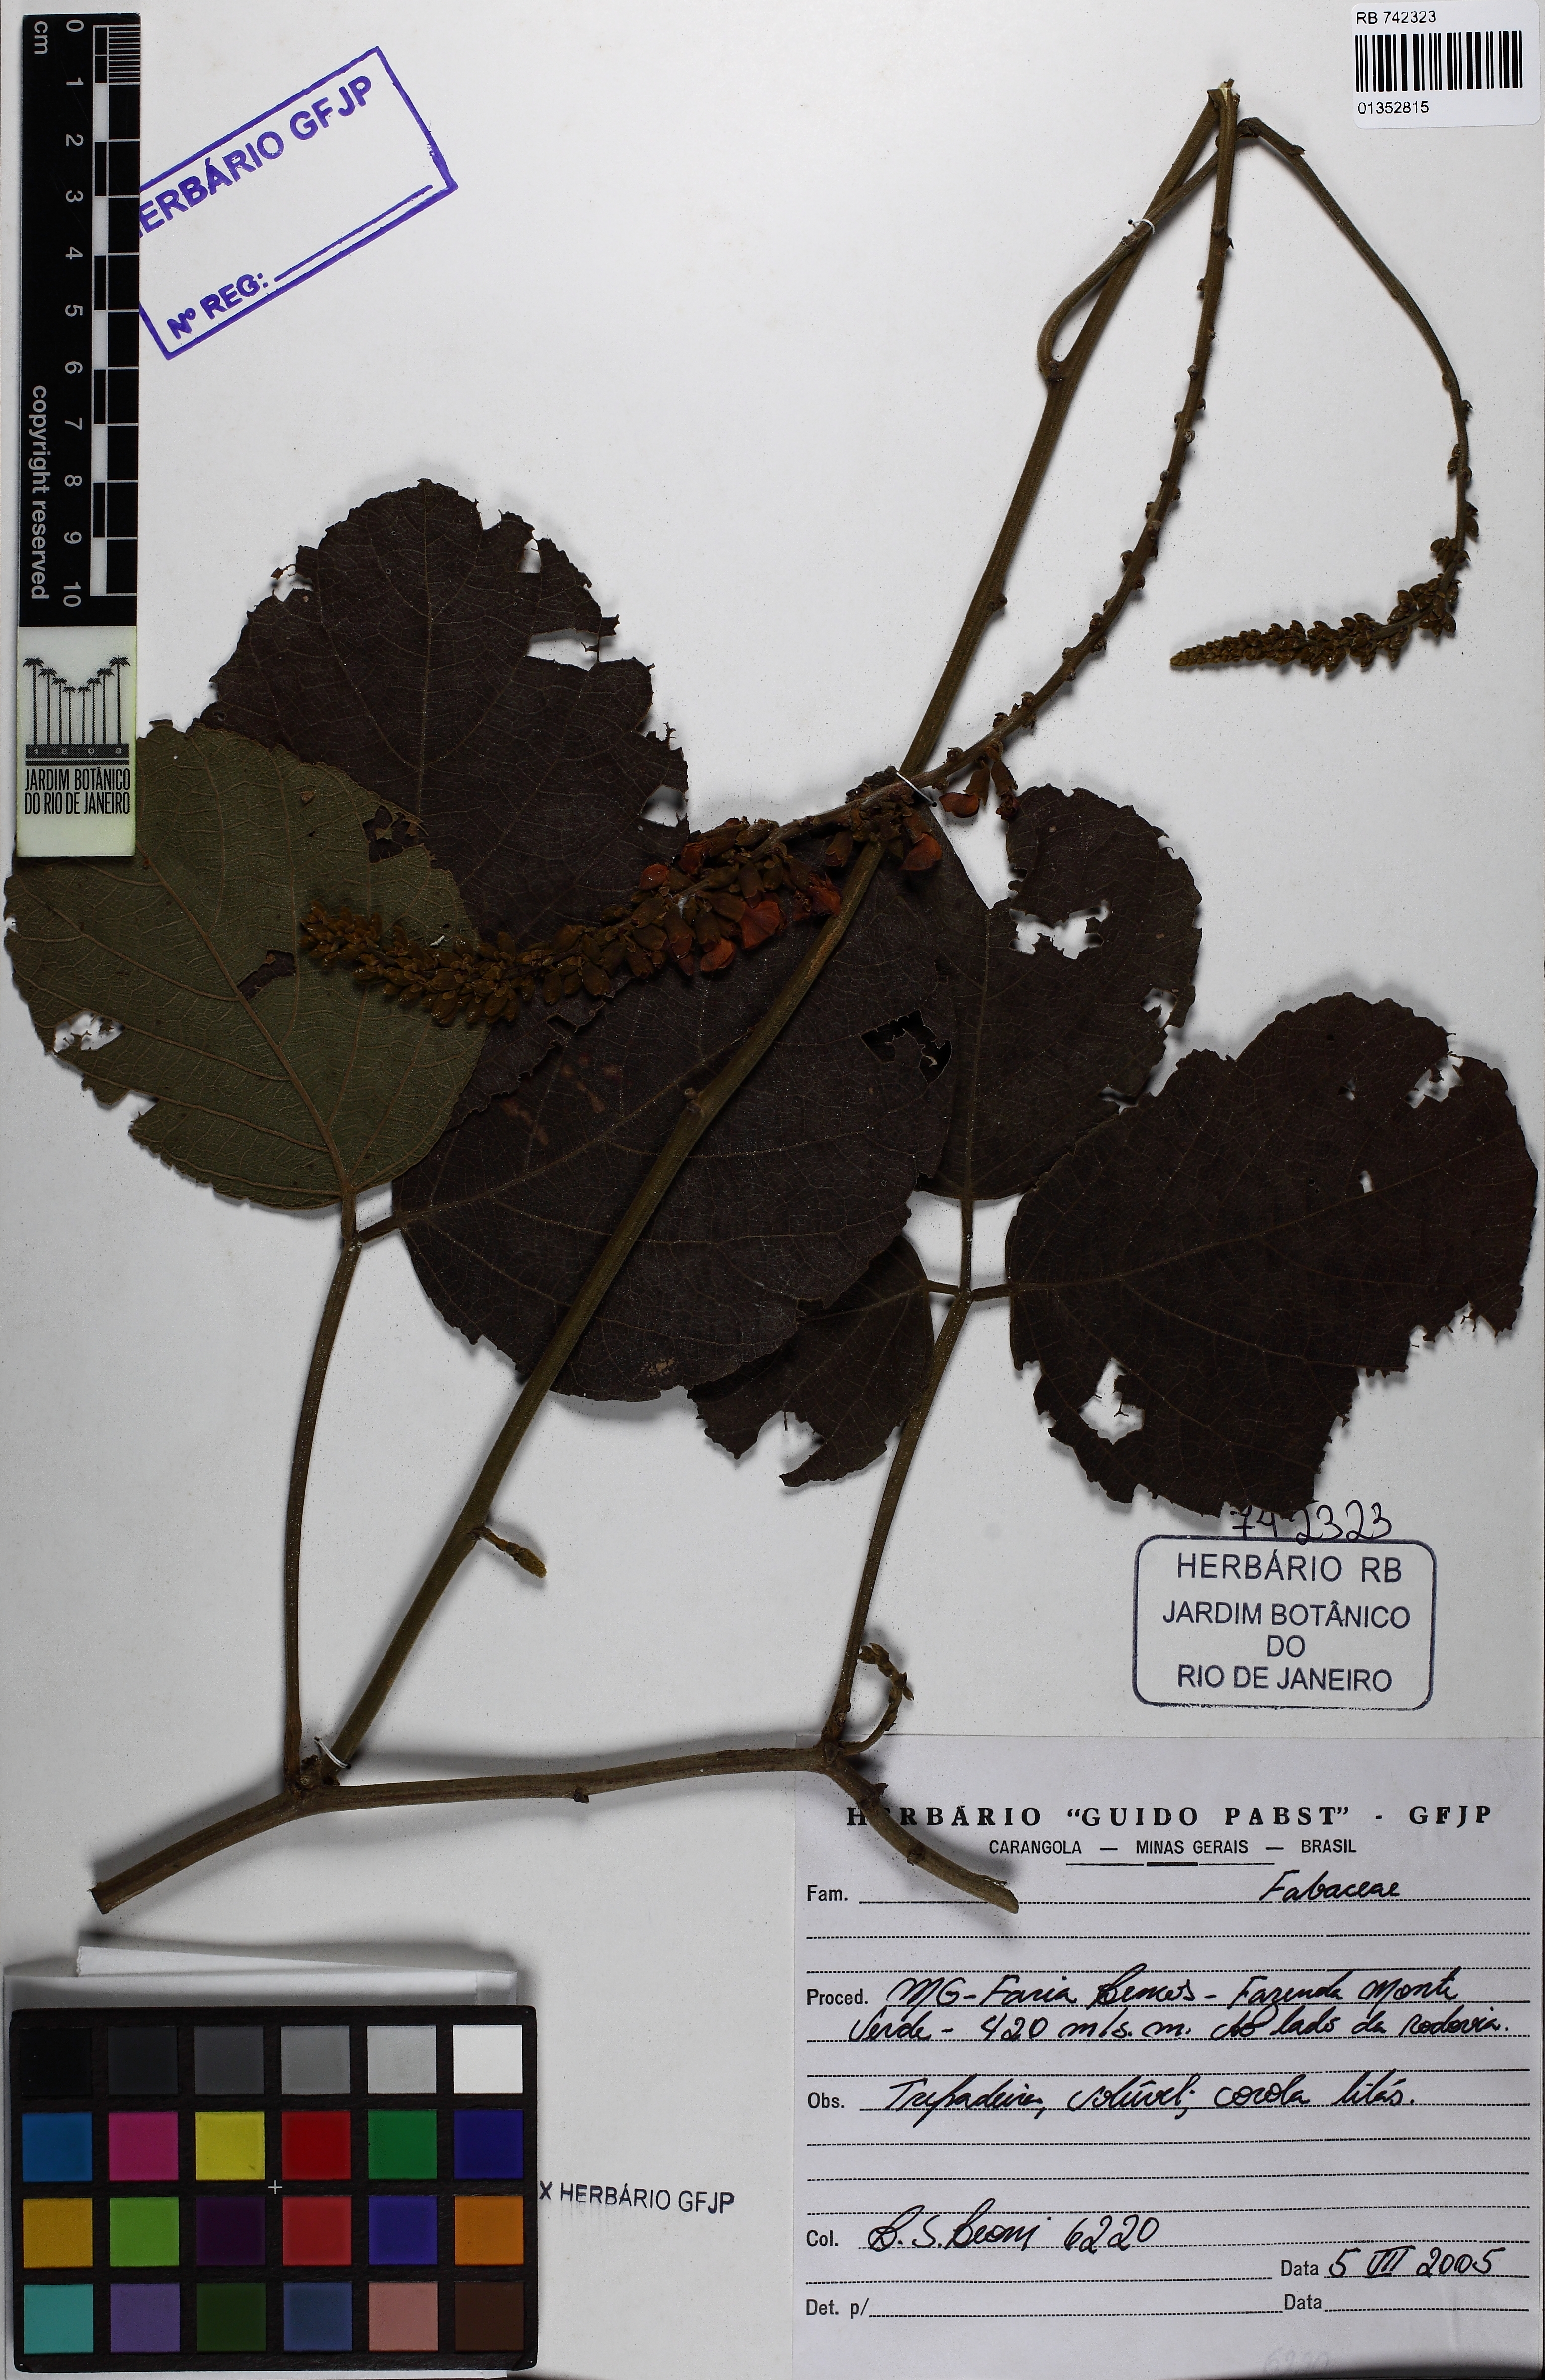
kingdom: Plantae
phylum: Tracheophyta
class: Magnoliopsida
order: Fabales
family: Fabaceae
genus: Cleobulia
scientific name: Cleobulia coccinea
